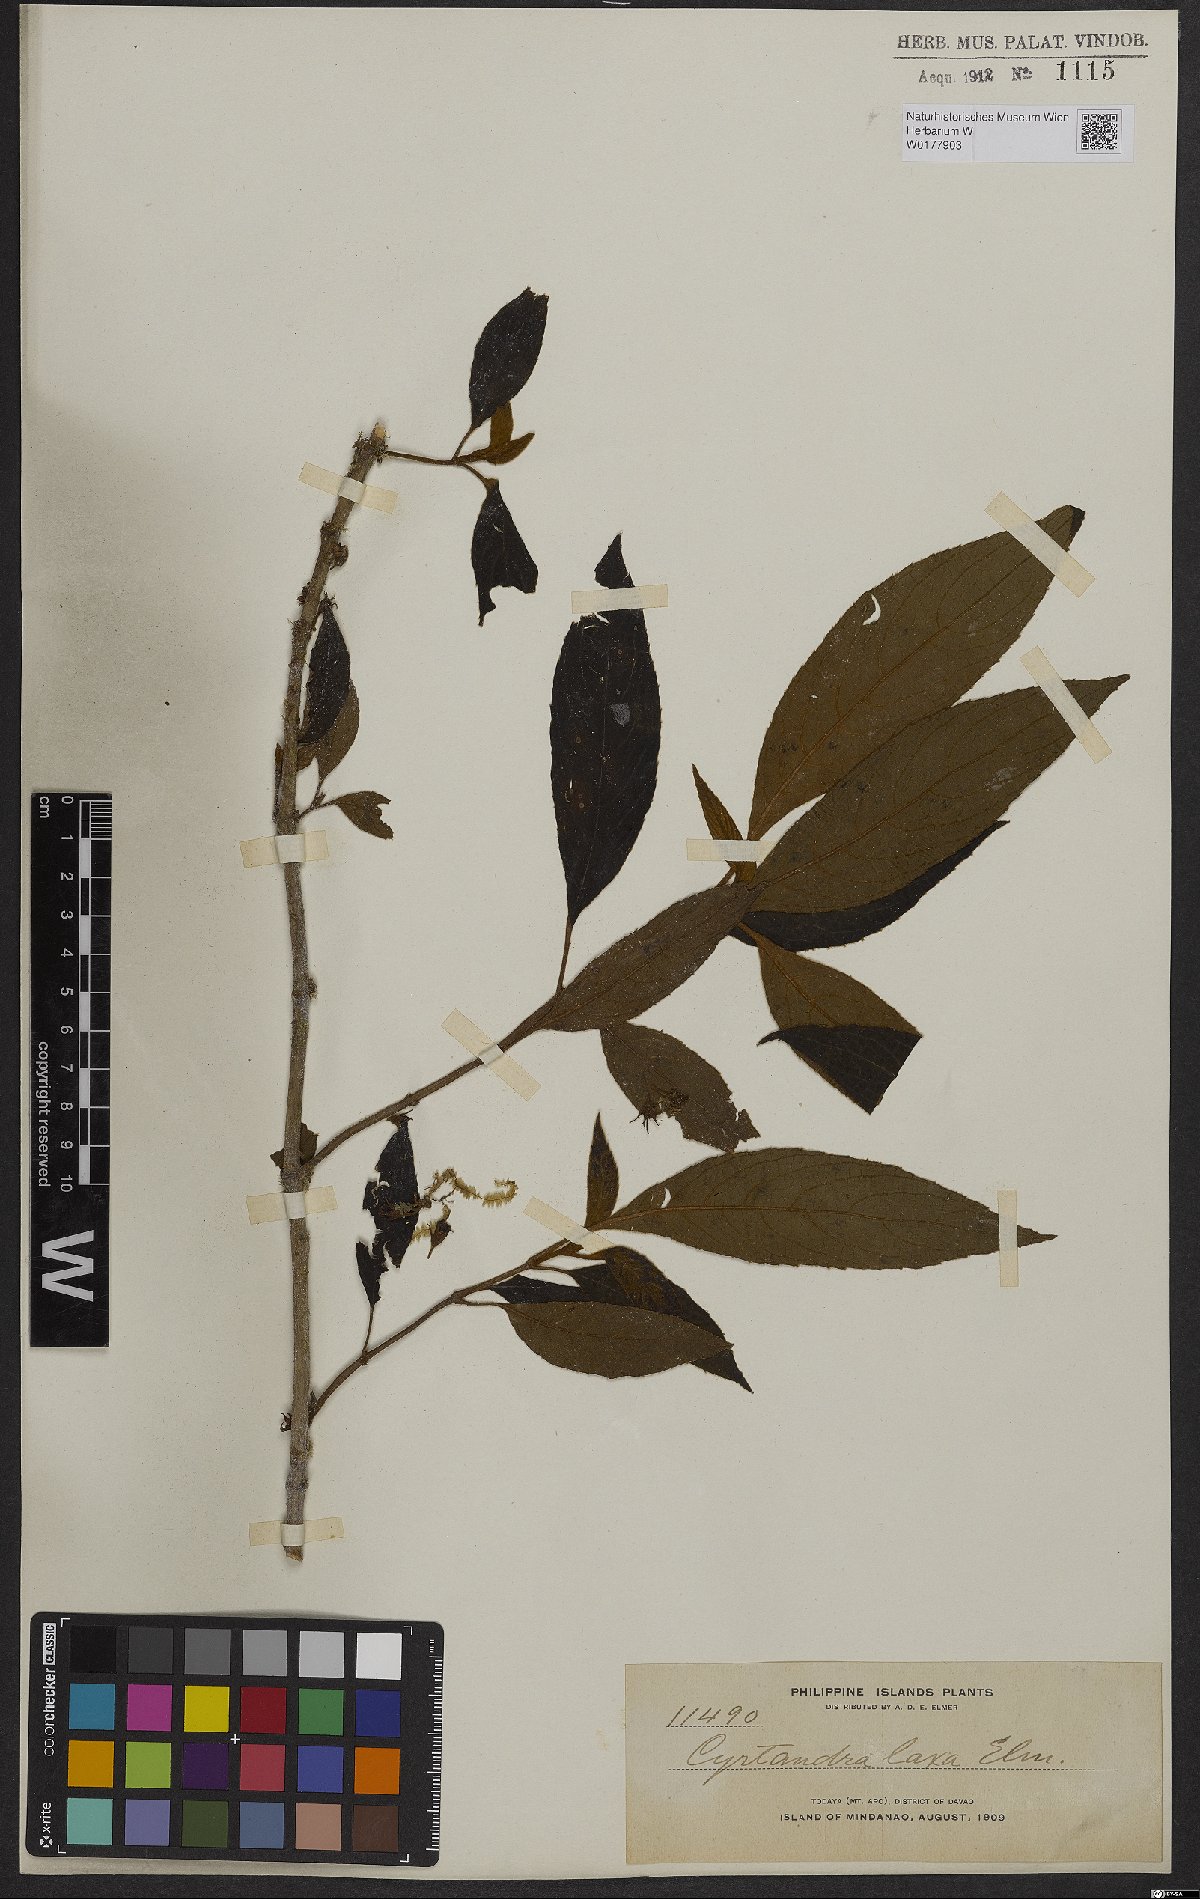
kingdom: Plantae
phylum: Tracheophyta
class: Magnoliopsida
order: Lamiales
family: Gesneriaceae
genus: Cyrtandra
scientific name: Cyrtandra pallida
